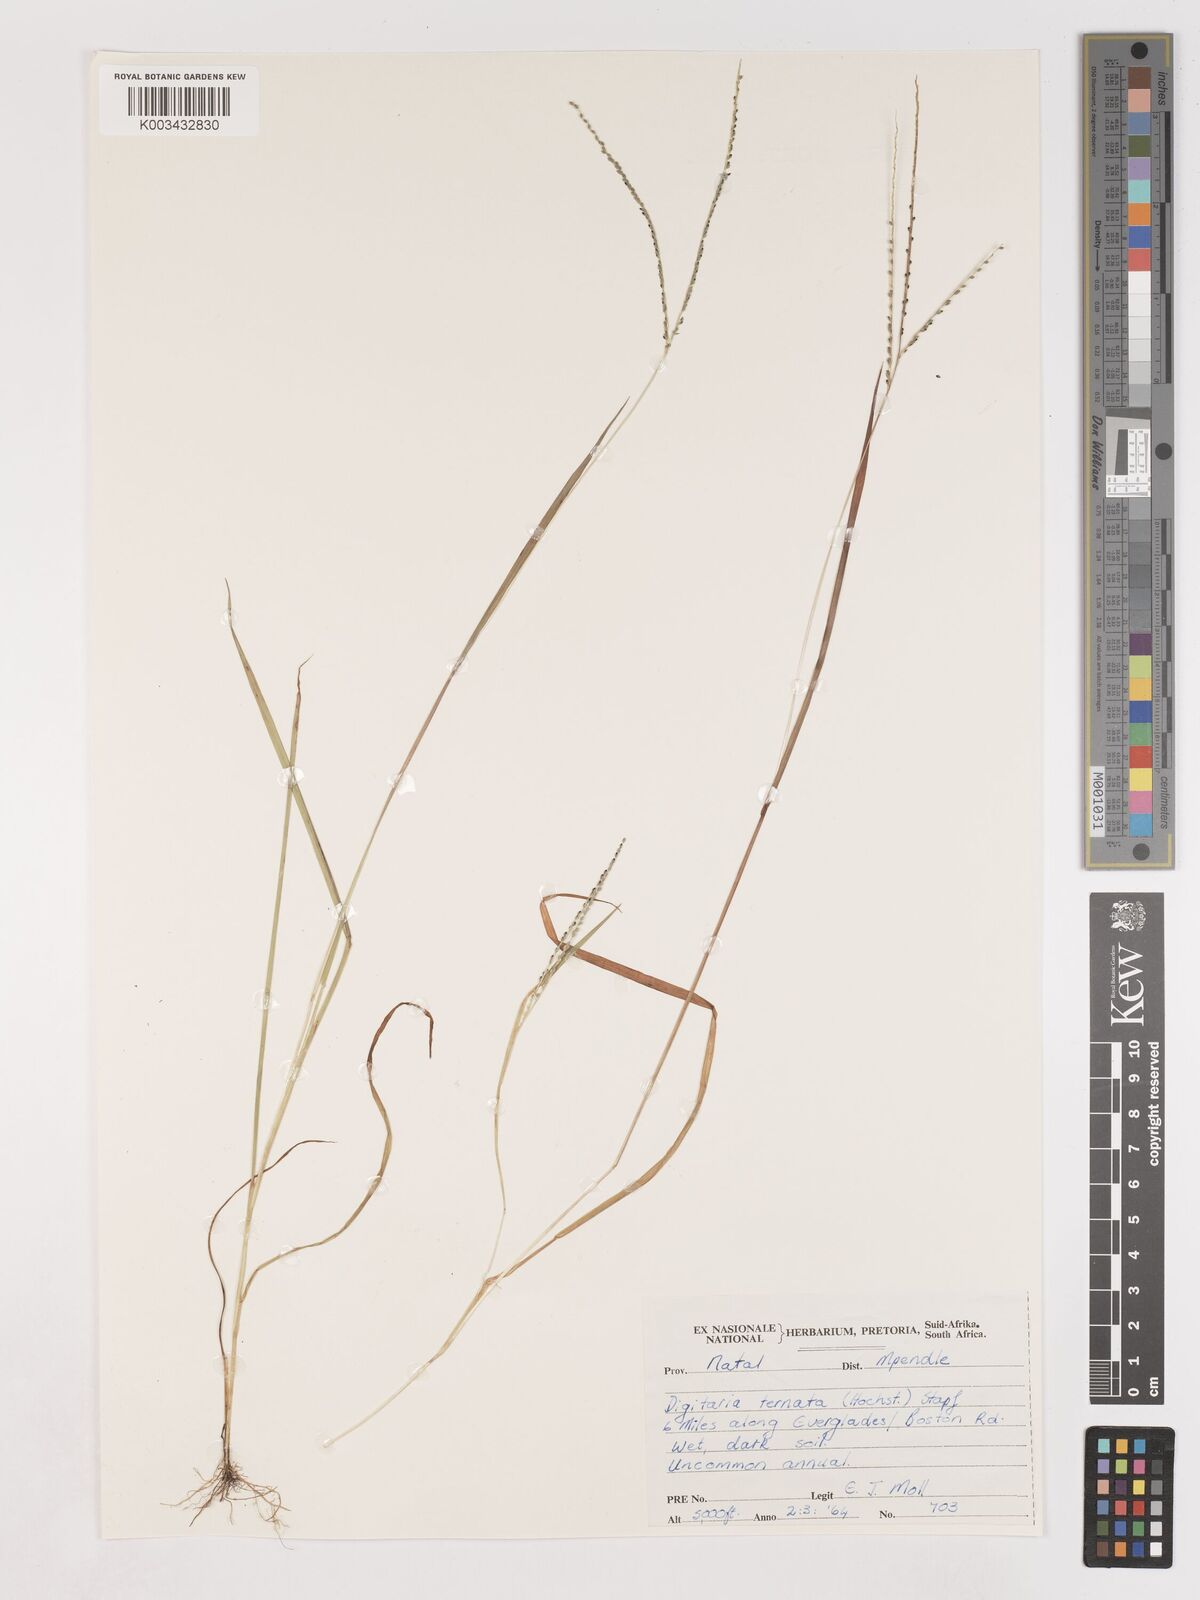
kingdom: Plantae
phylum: Tracheophyta
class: Liliopsida
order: Poales
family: Poaceae
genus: Digitaria
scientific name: Digitaria thouarsiana
